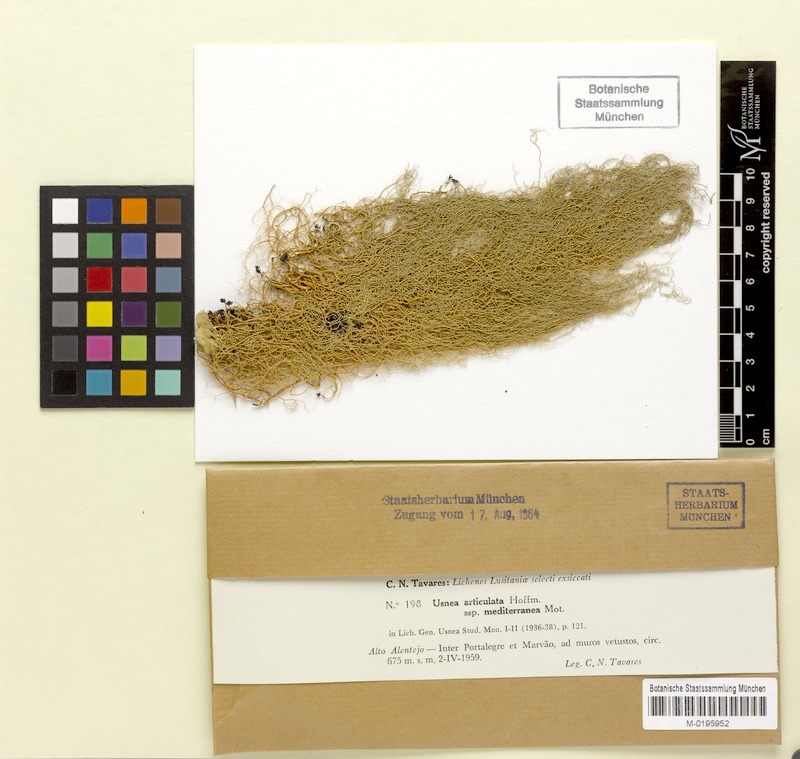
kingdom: Fungi
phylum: Ascomycota
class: Lecanoromycetes
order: Lecanorales
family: Parmeliaceae
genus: Usnea
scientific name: Usnea articulata
